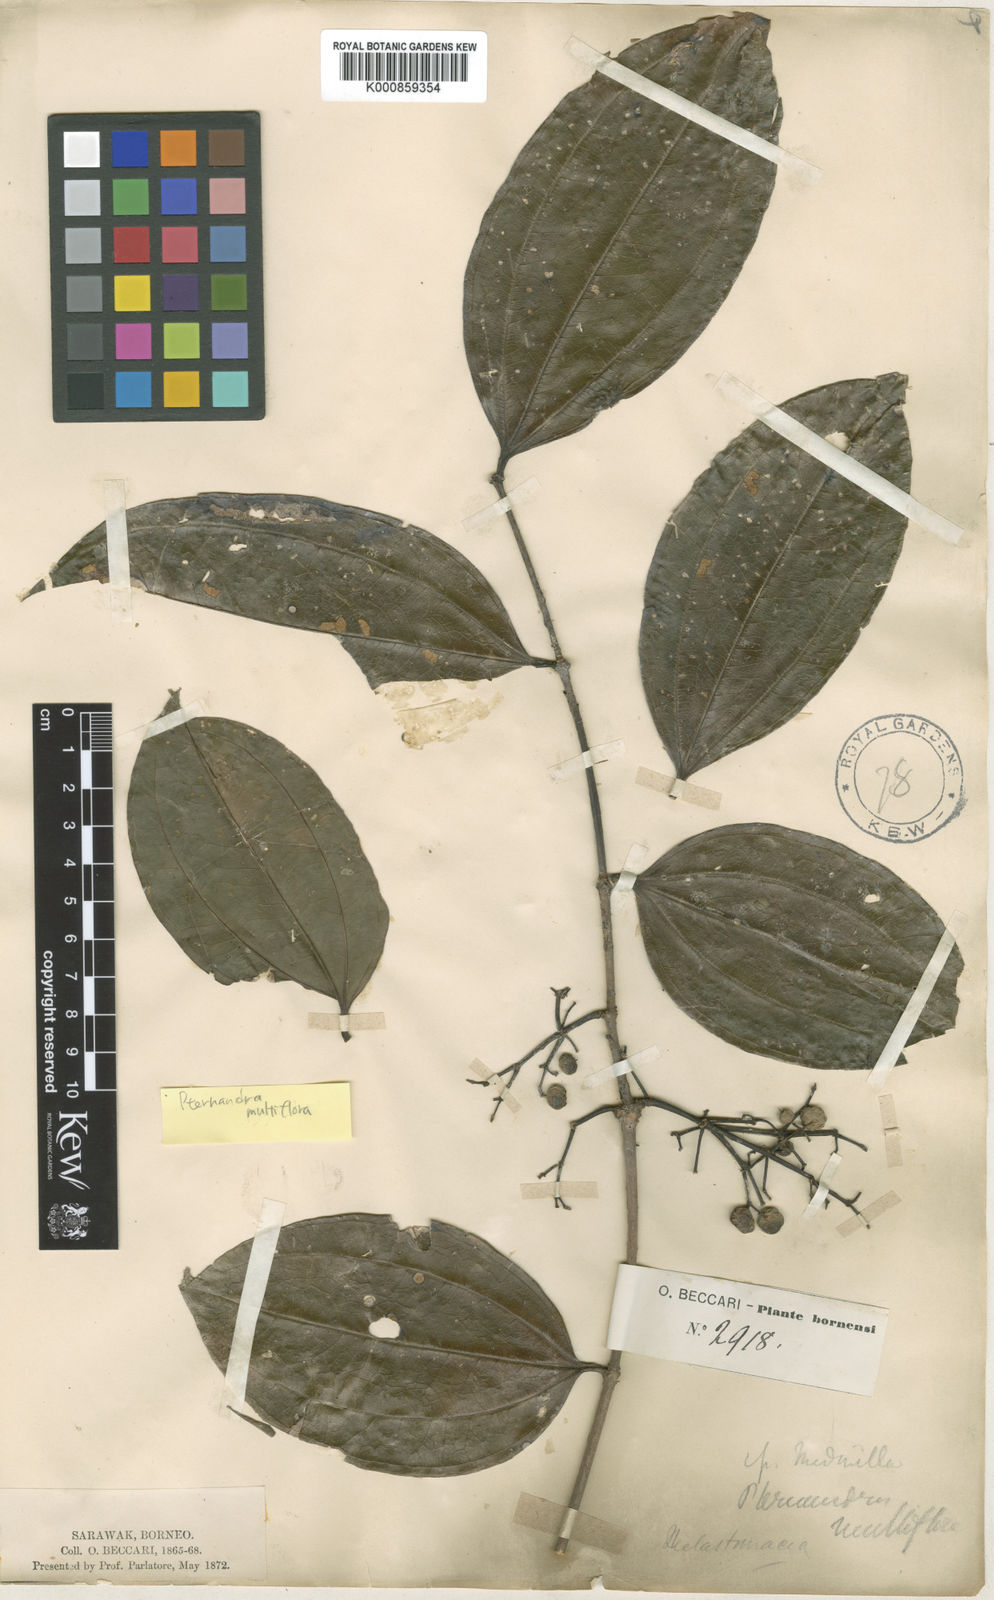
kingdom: Plantae
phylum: Tracheophyta
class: Magnoliopsida
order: Myrtales
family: Melastomataceae
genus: Pternandra
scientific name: Pternandra multiflora
